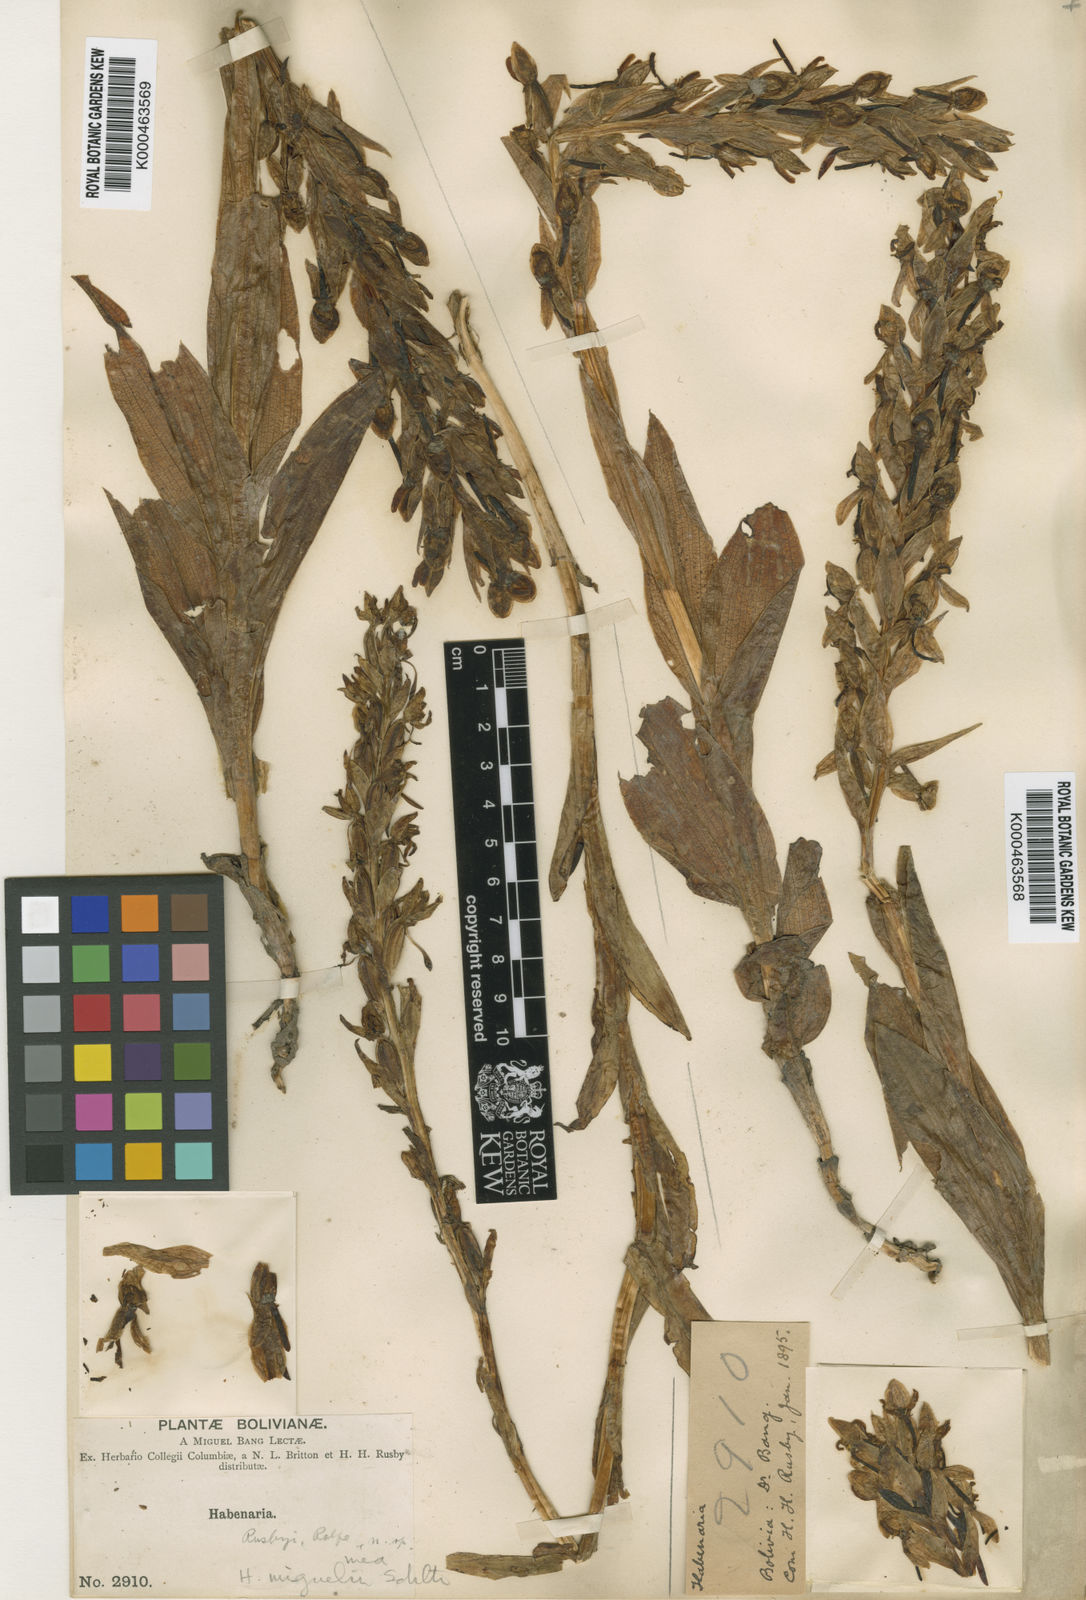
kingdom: Plantae
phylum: Tracheophyta
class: Liliopsida
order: Asparagales
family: Orchidaceae
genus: Habenaria
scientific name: Habenaria polycarpa
